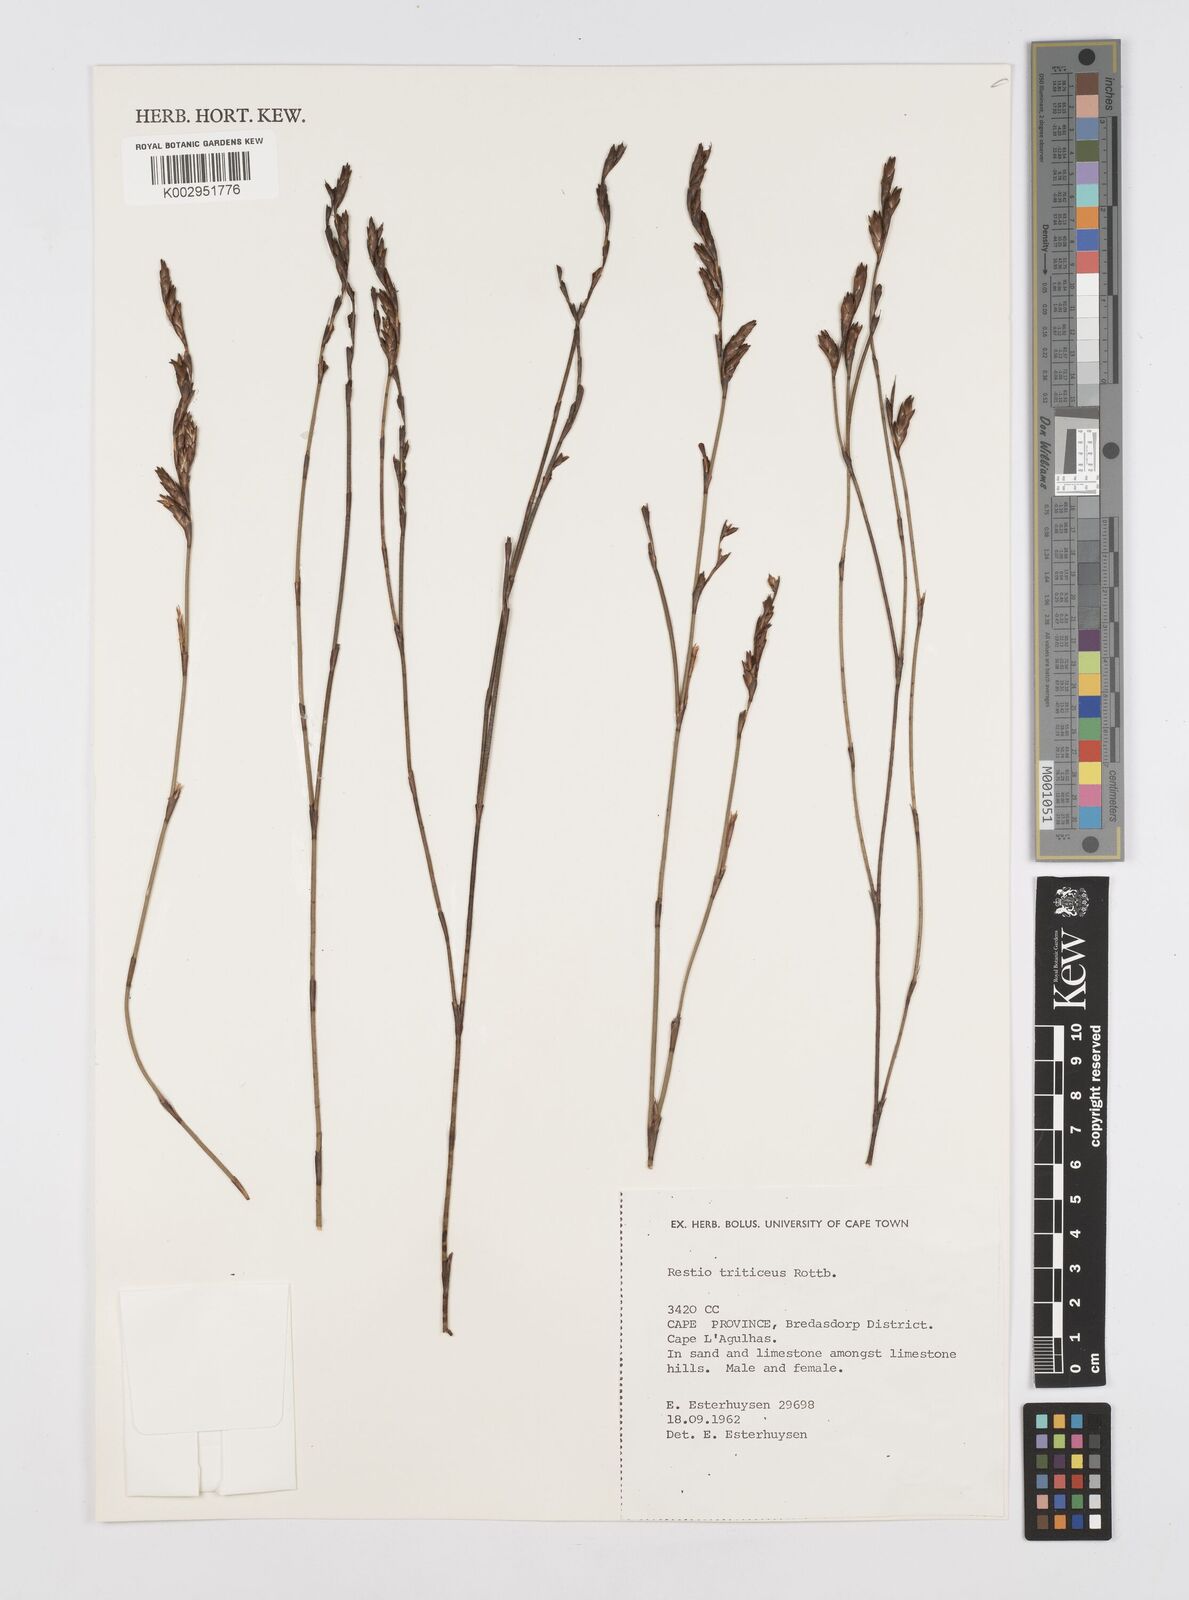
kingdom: Plantae
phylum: Tracheophyta
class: Liliopsida
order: Poales
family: Restionaceae
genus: Restio
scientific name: Restio triticeus
